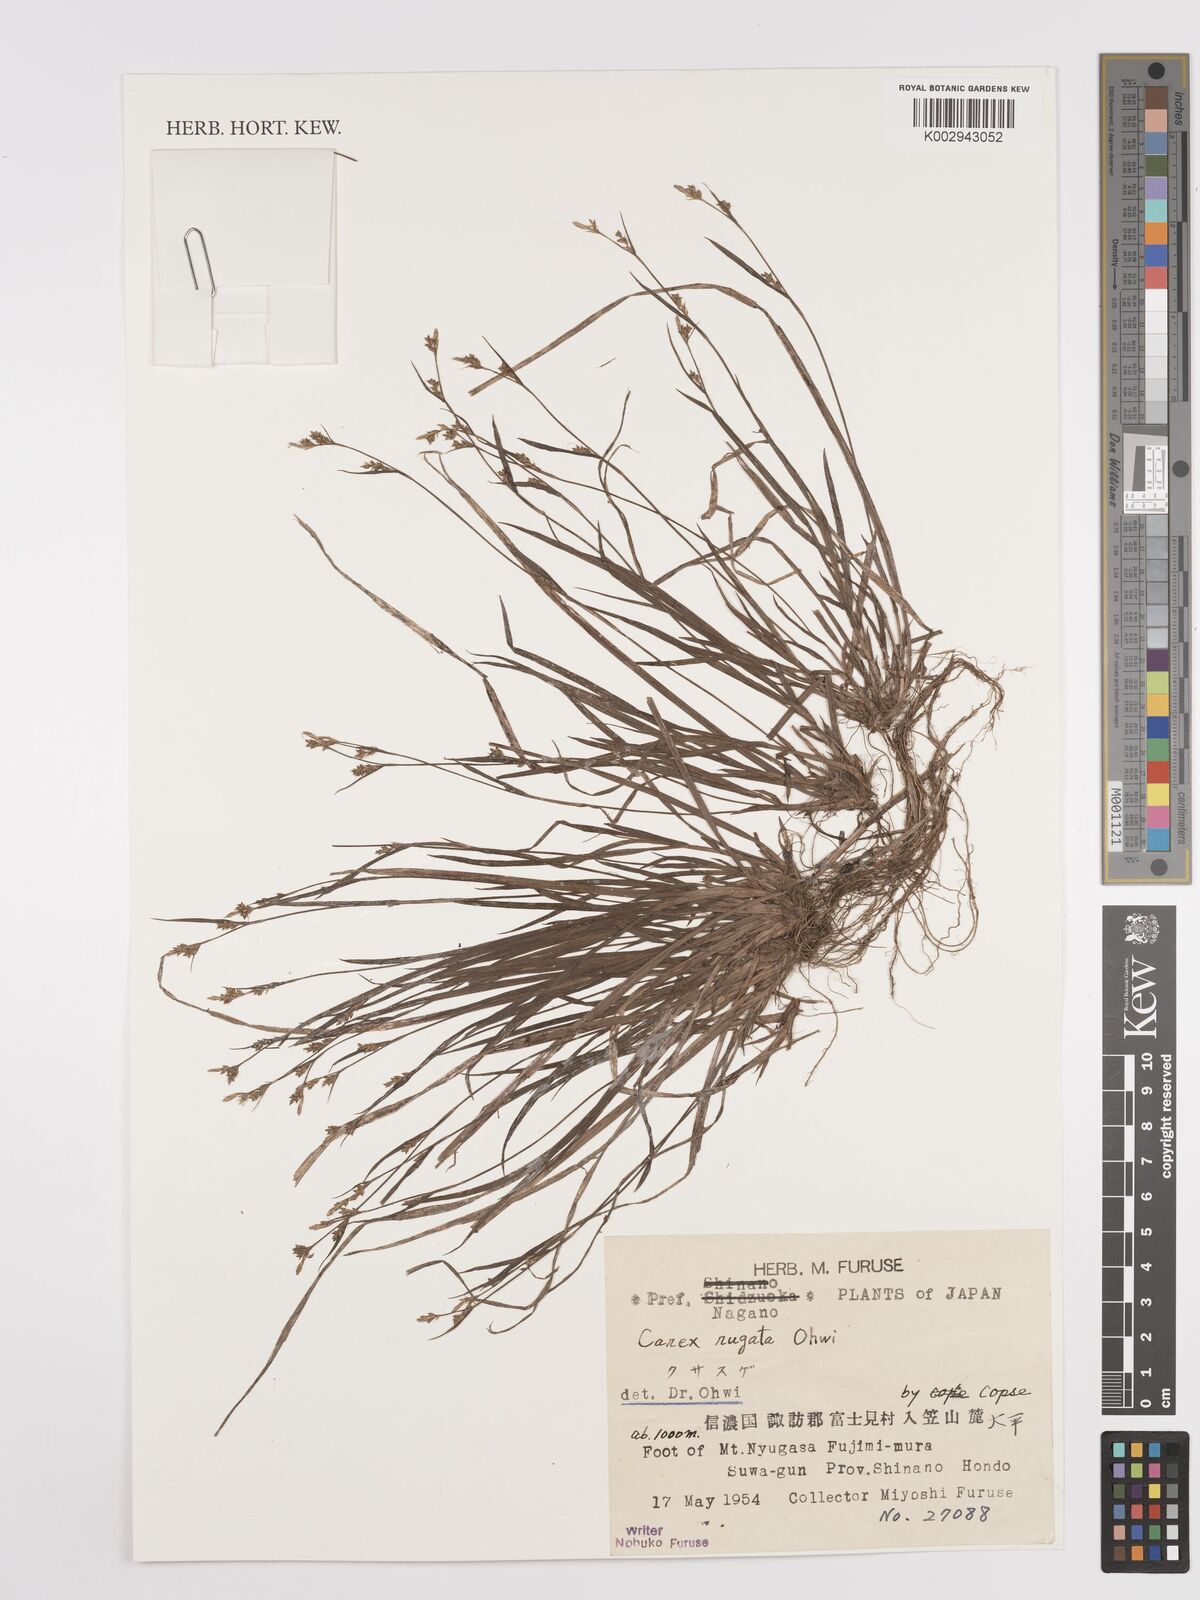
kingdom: Plantae
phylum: Tracheophyta
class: Liliopsida
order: Poales
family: Cyperaceae
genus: Carex
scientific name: Carex rugata
